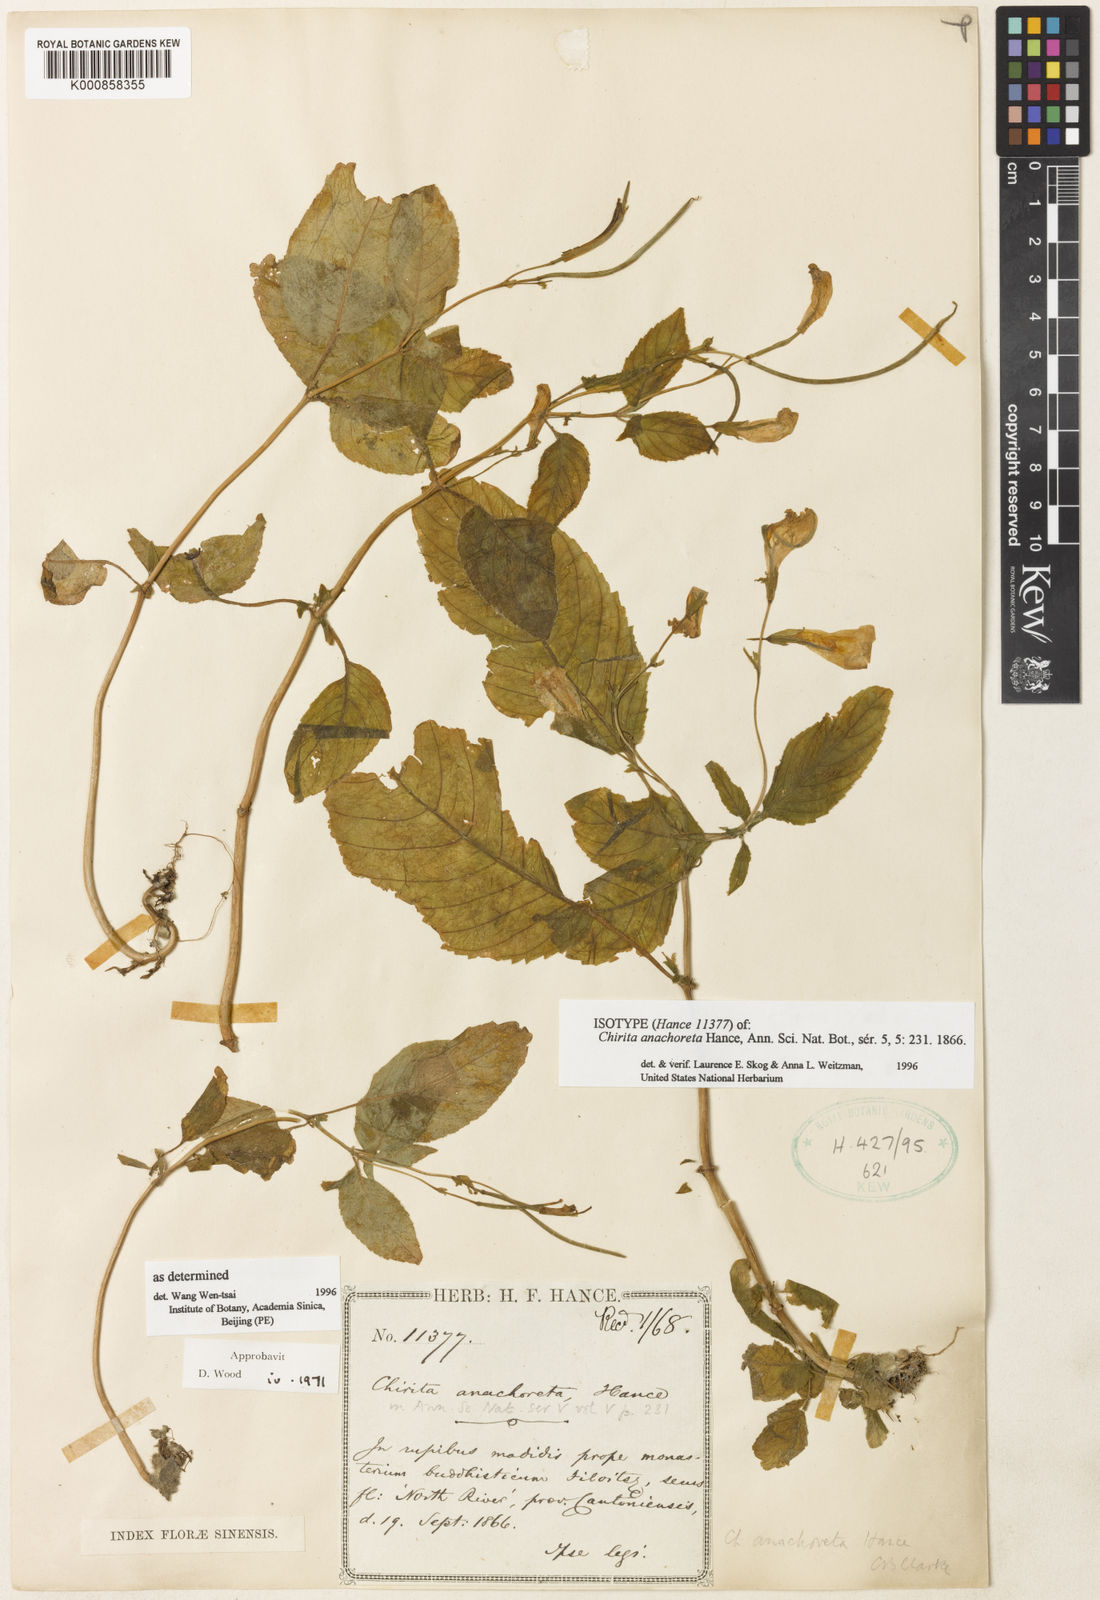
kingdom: Plantae
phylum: Tracheophyta
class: Magnoliopsida
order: Lamiales
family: Gesneriaceae
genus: Henckelia
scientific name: Henckelia anachoreta
